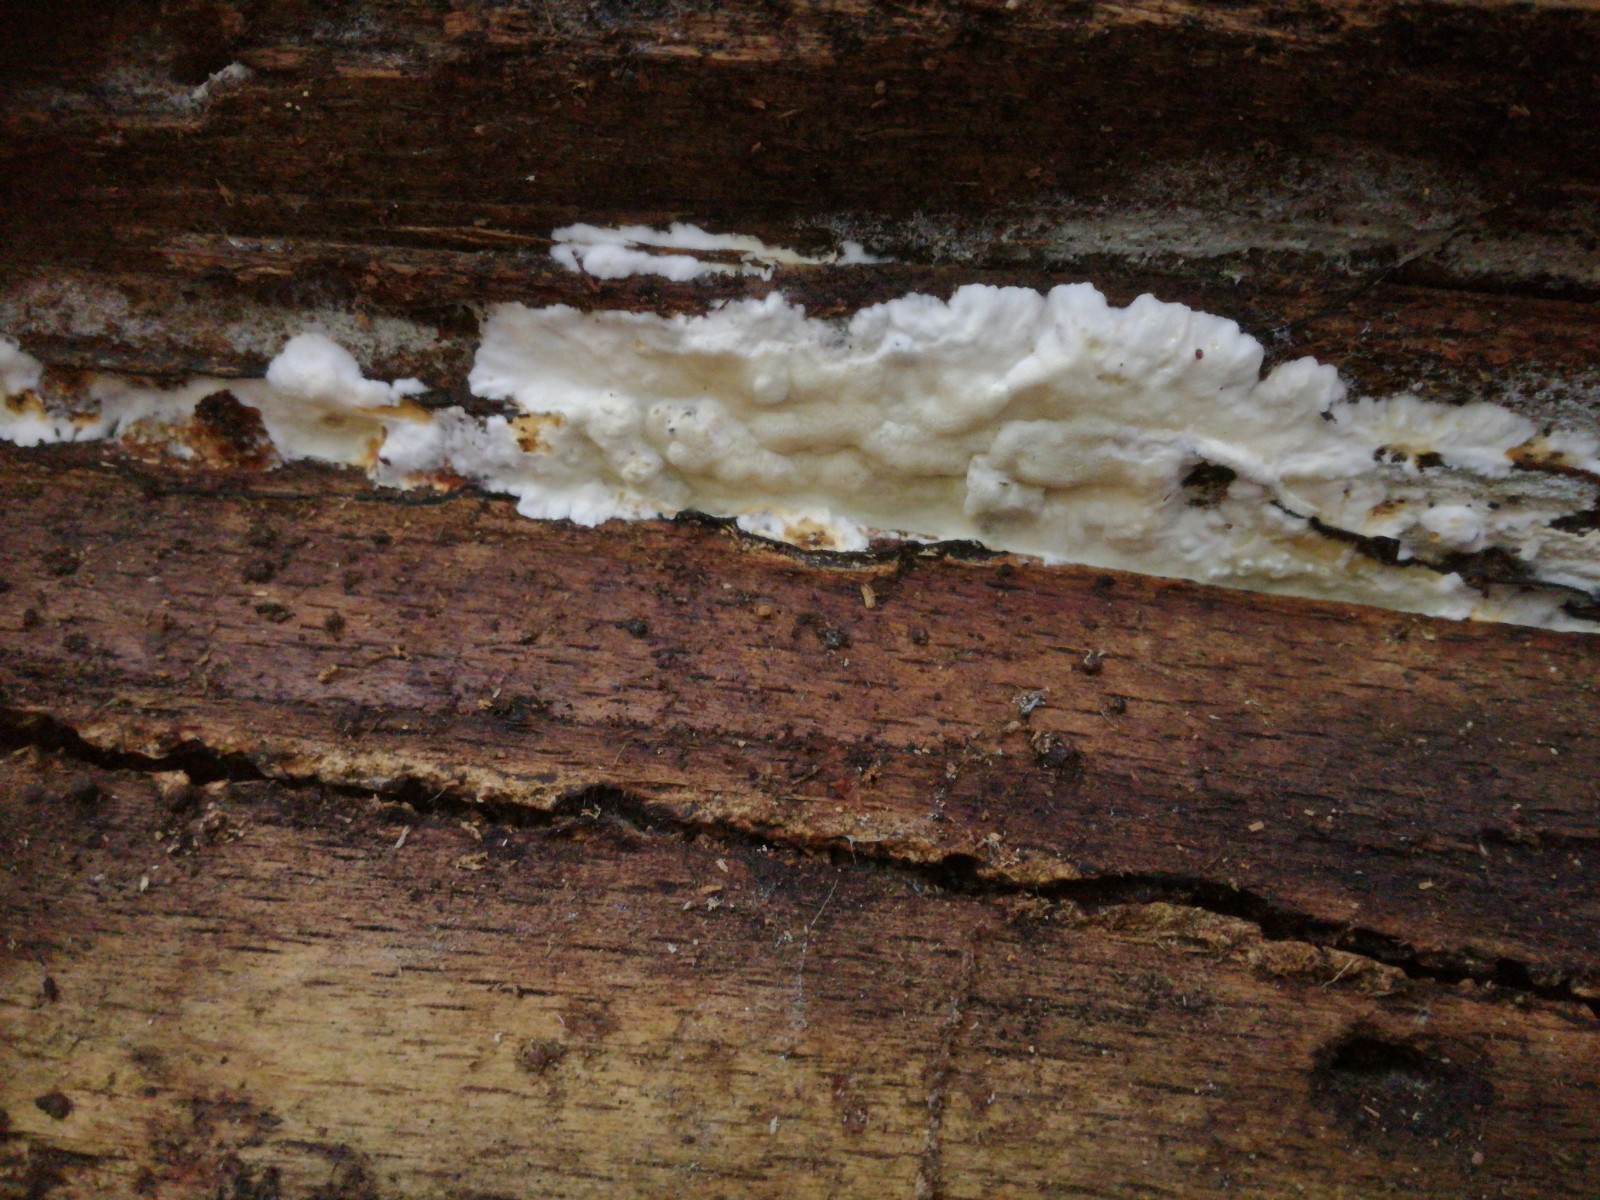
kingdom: Fungi
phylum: Basidiomycota
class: Agaricomycetes
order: Polyporales
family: Irpicaceae
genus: Gloeoporus
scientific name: Gloeoporus pannocinctus
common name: grøngul foldporesvamp
